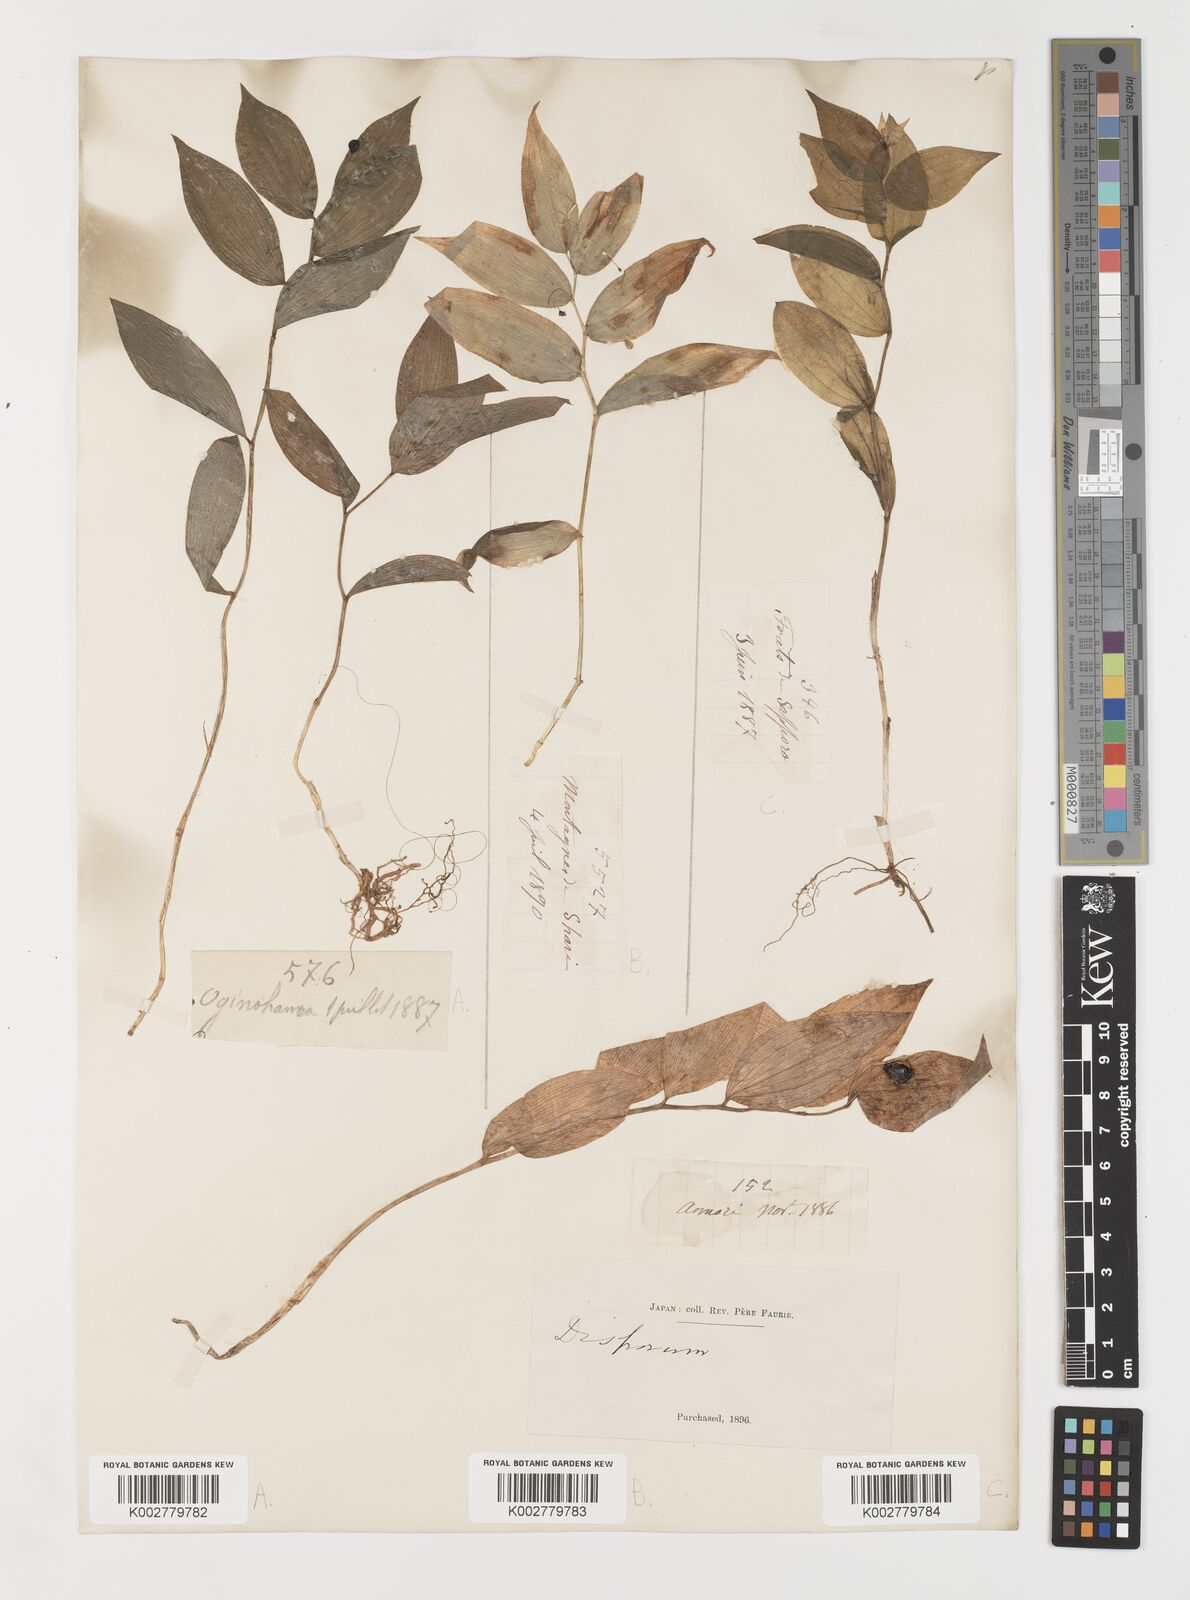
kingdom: Plantae
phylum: Tracheophyta
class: Liliopsida
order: Liliales
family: Colchicaceae
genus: Disporum
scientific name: Disporum smilacinum
